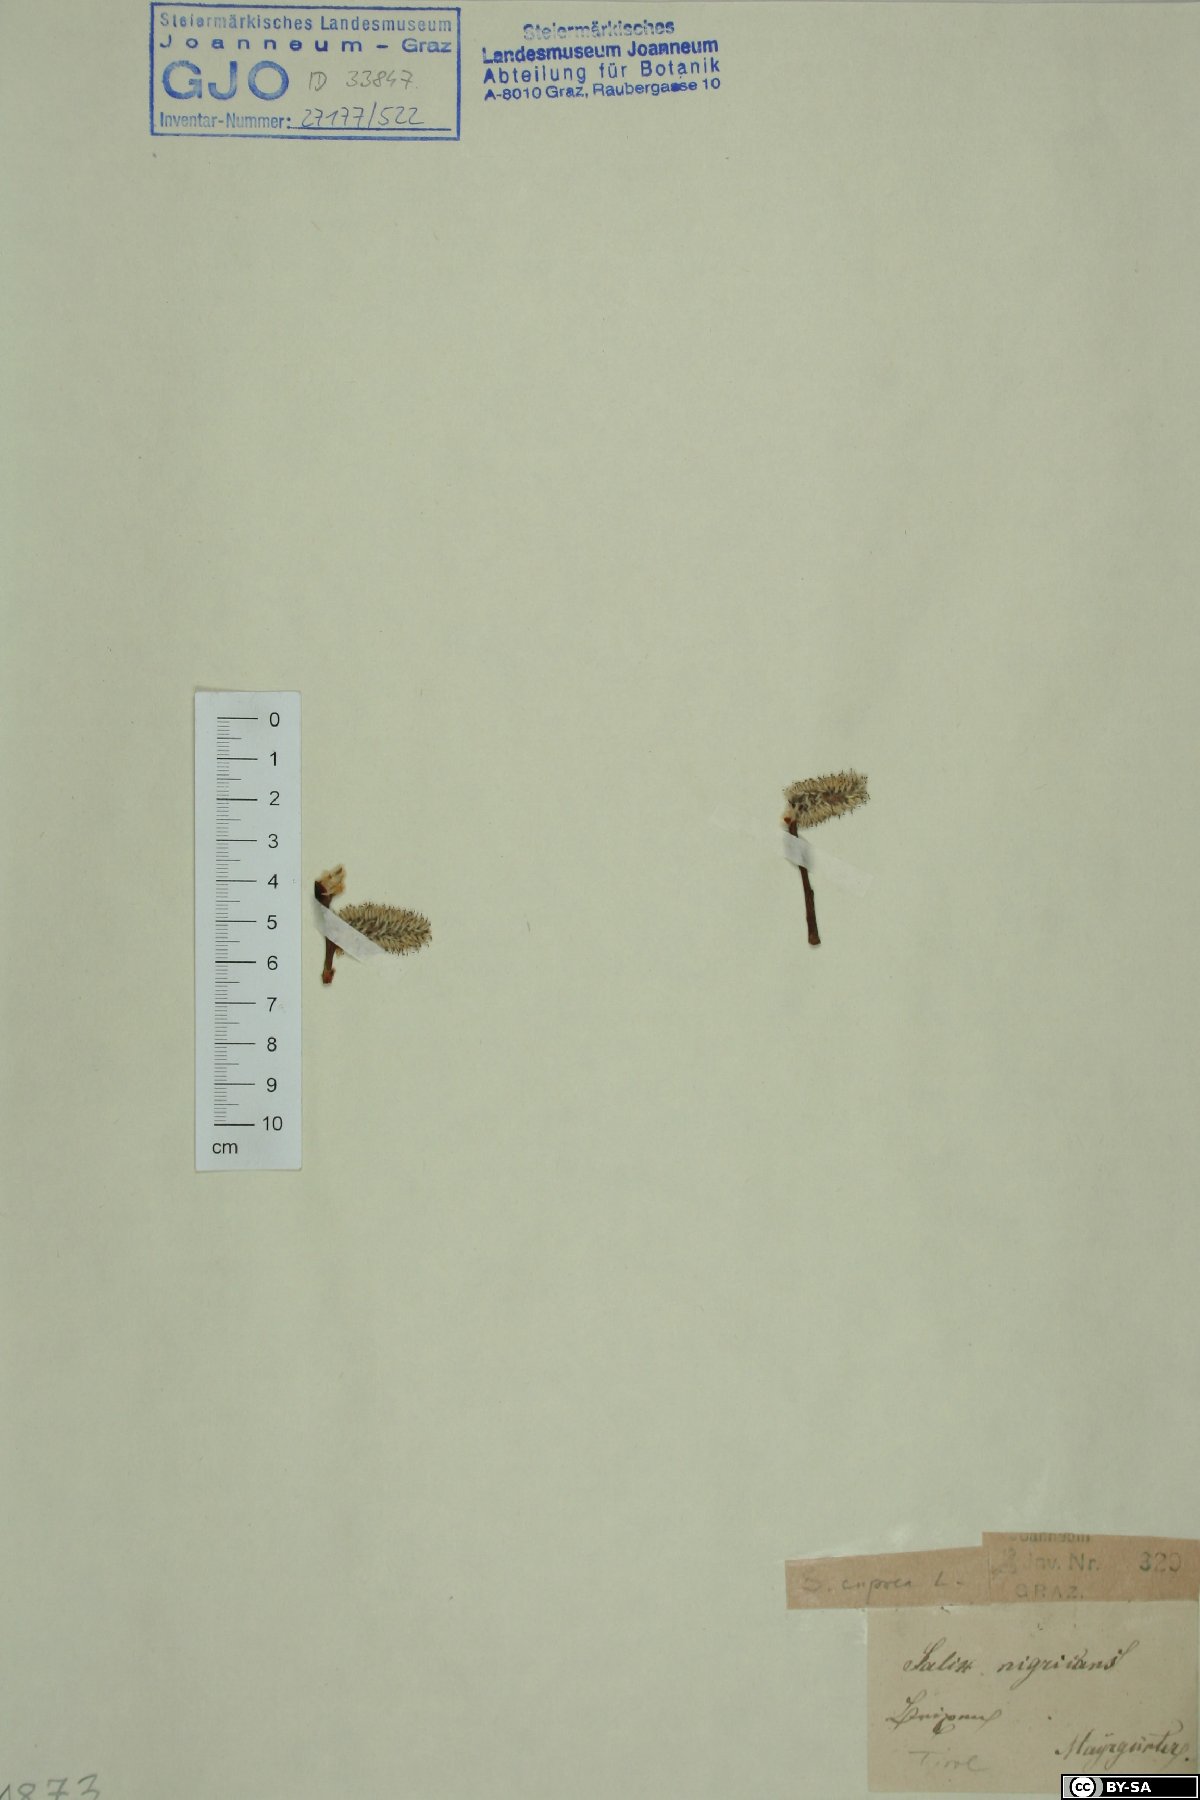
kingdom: Plantae
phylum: Tracheophyta
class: Magnoliopsida
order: Malpighiales
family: Salicaceae
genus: Salix
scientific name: Salix caprea
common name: Goat willow
